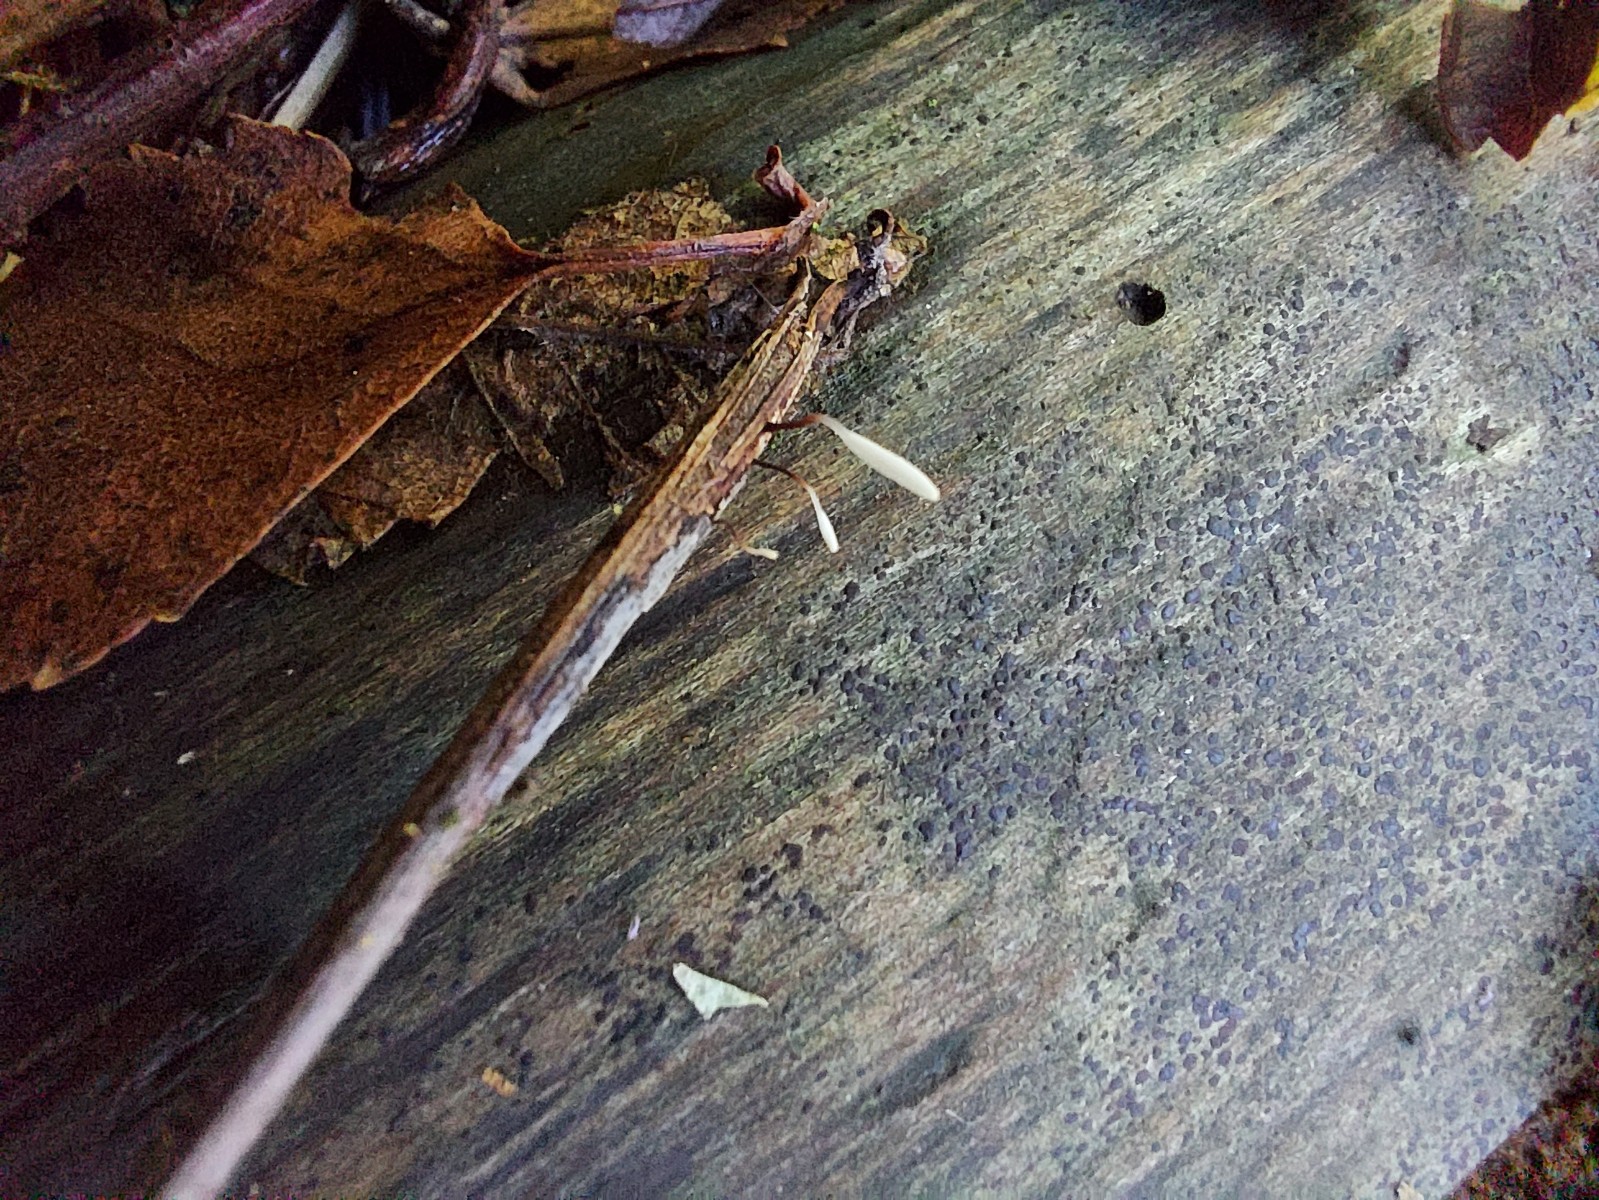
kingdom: Fungi
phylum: Basidiomycota
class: Agaricomycetes
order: Agaricales
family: Typhulaceae
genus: Typhula
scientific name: Typhula erythropus
